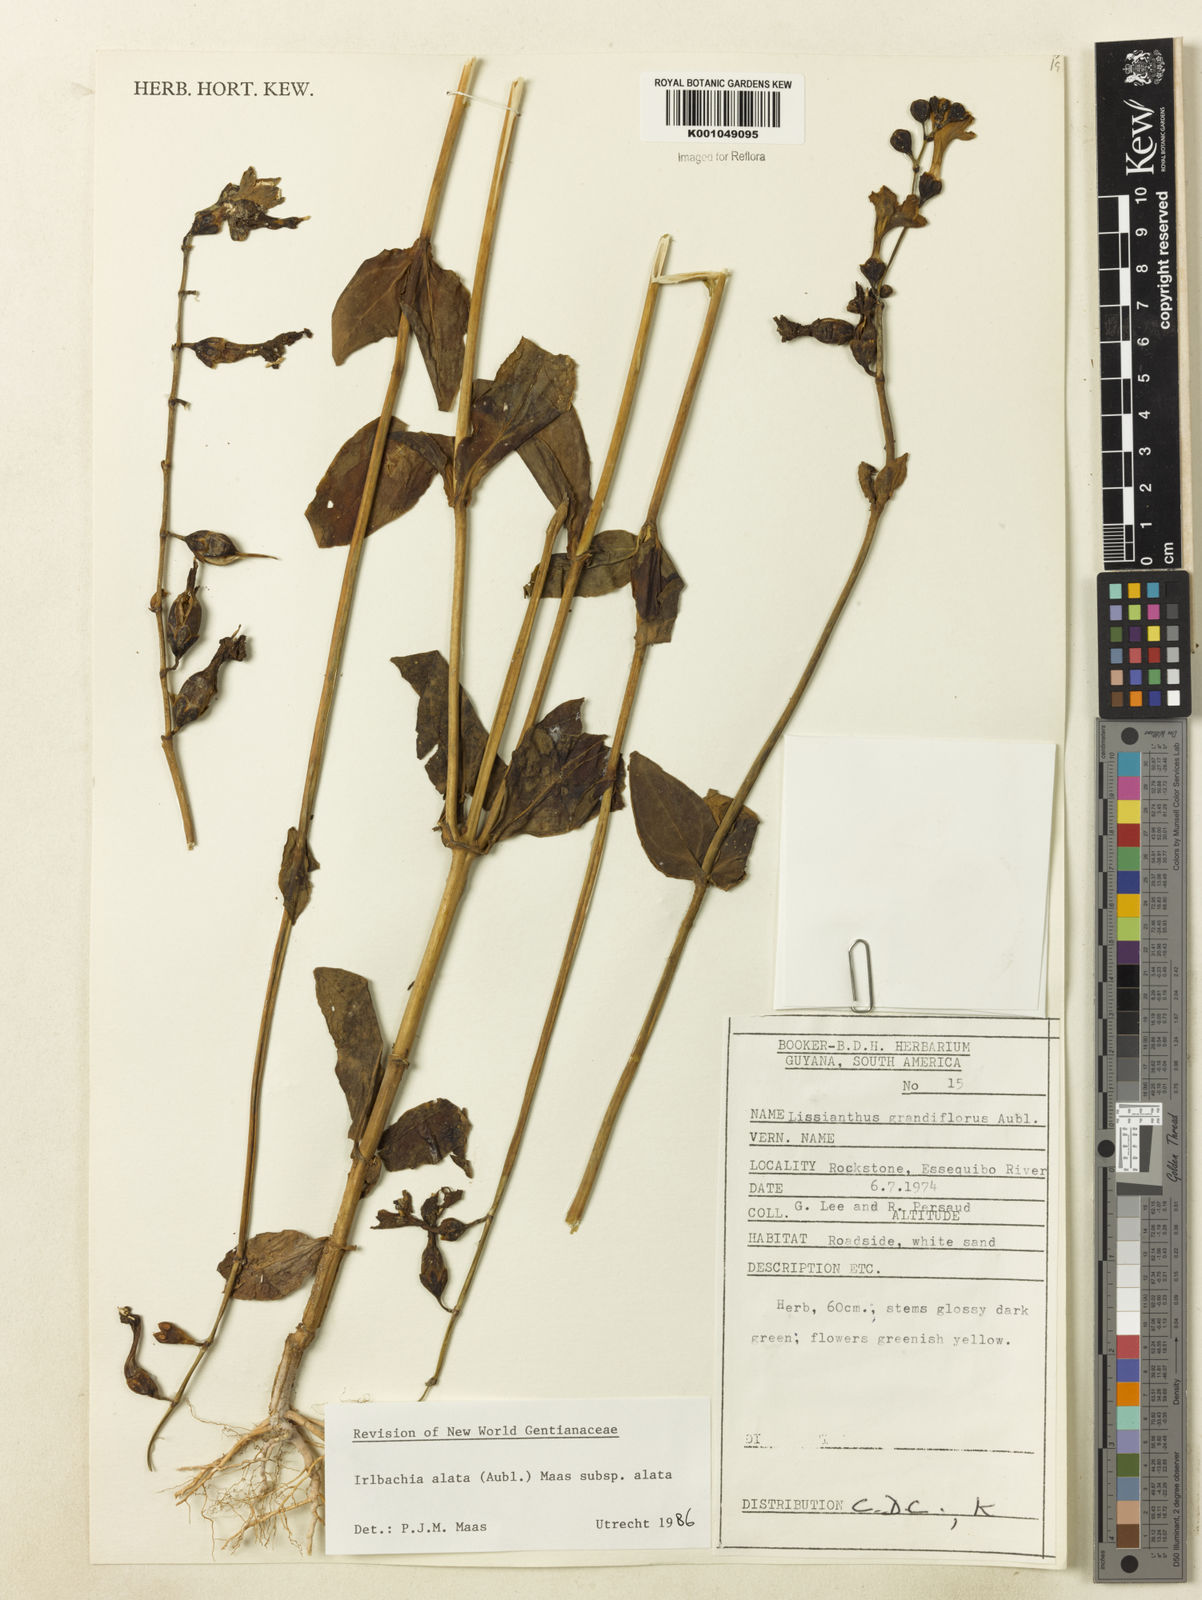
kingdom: Plantae
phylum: Tracheophyta
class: Magnoliopsida
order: Gentianales
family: Gentianaceae
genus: Chelonanthus
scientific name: Chelonanthus alatus
